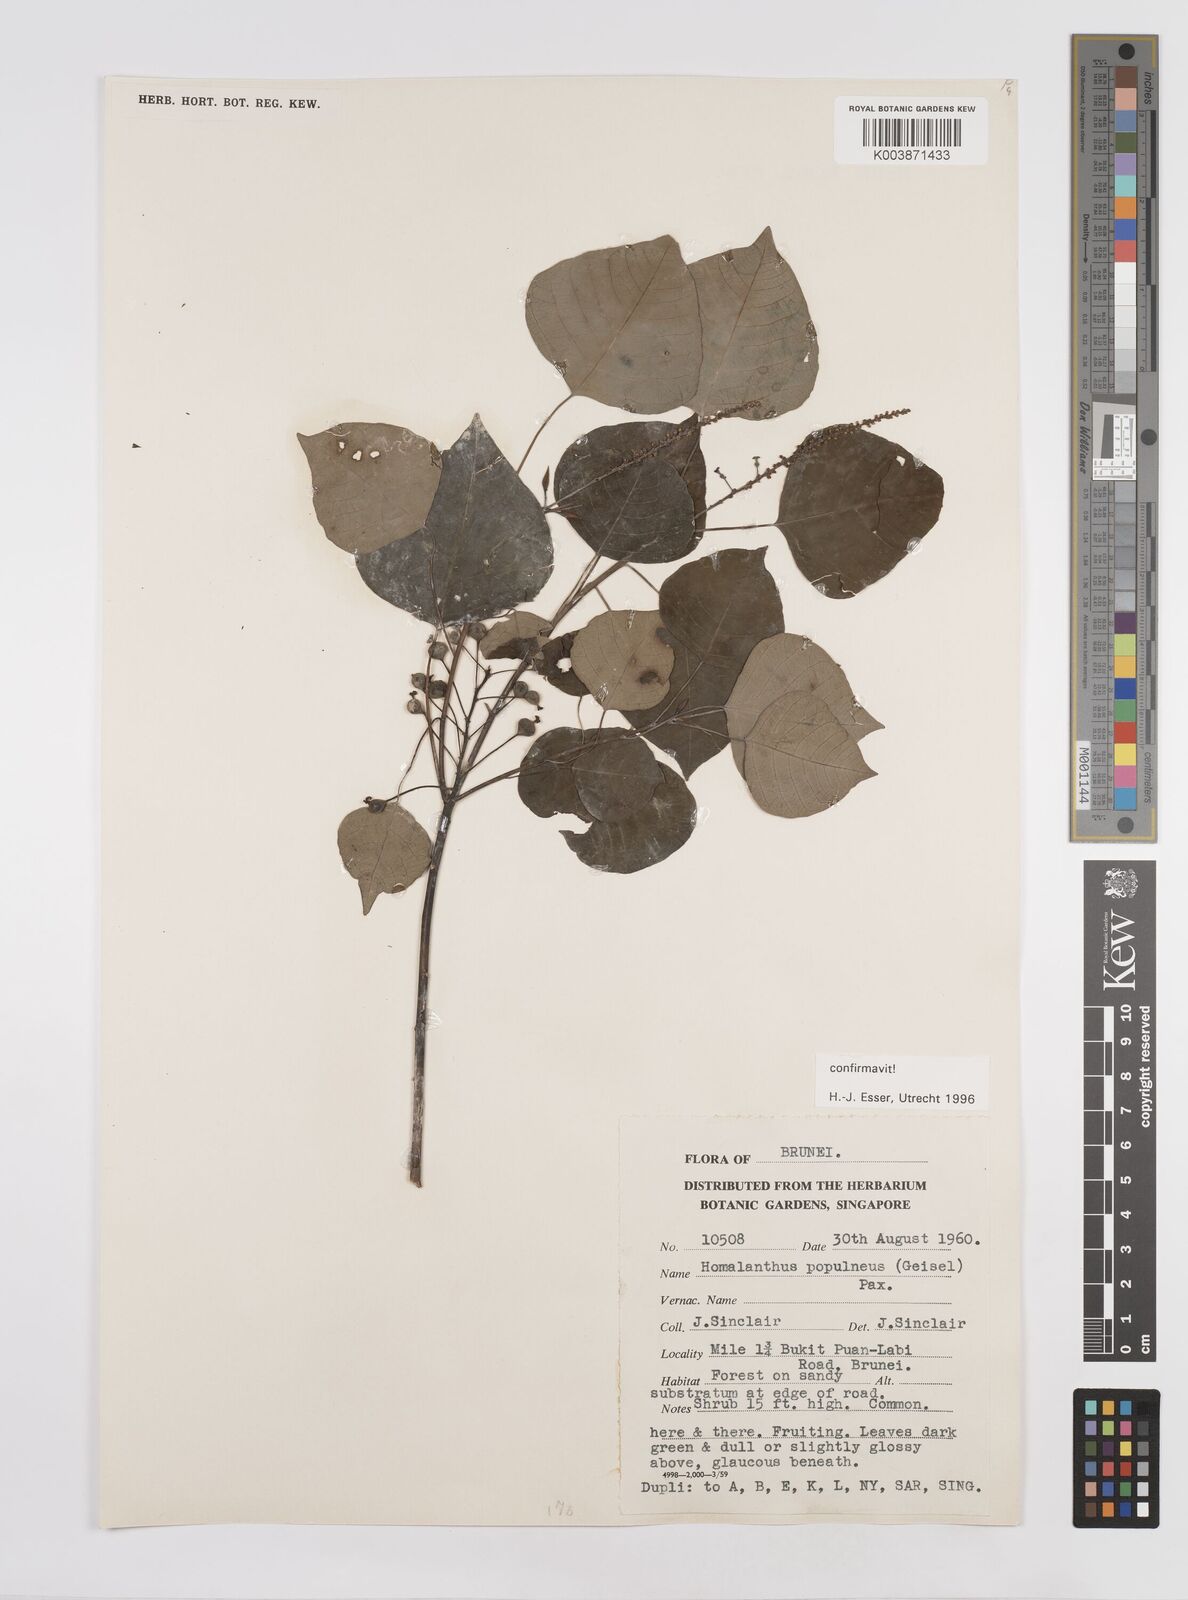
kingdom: Plantae
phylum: Tracheophyta
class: Magnoliopsida
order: Malpighiales
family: Euphorbiaceae
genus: Homalanthus
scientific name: Homalanthus populneus
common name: Spurge
